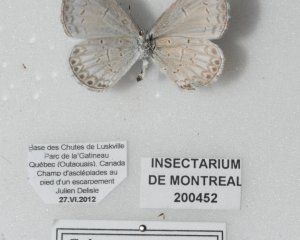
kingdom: Animalia
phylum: Arthropoda
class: Insecta
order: Lepidoptera
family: Lycaenidae
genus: Cyaniris
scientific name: Cyaniris neglecta
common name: Summer Azure
